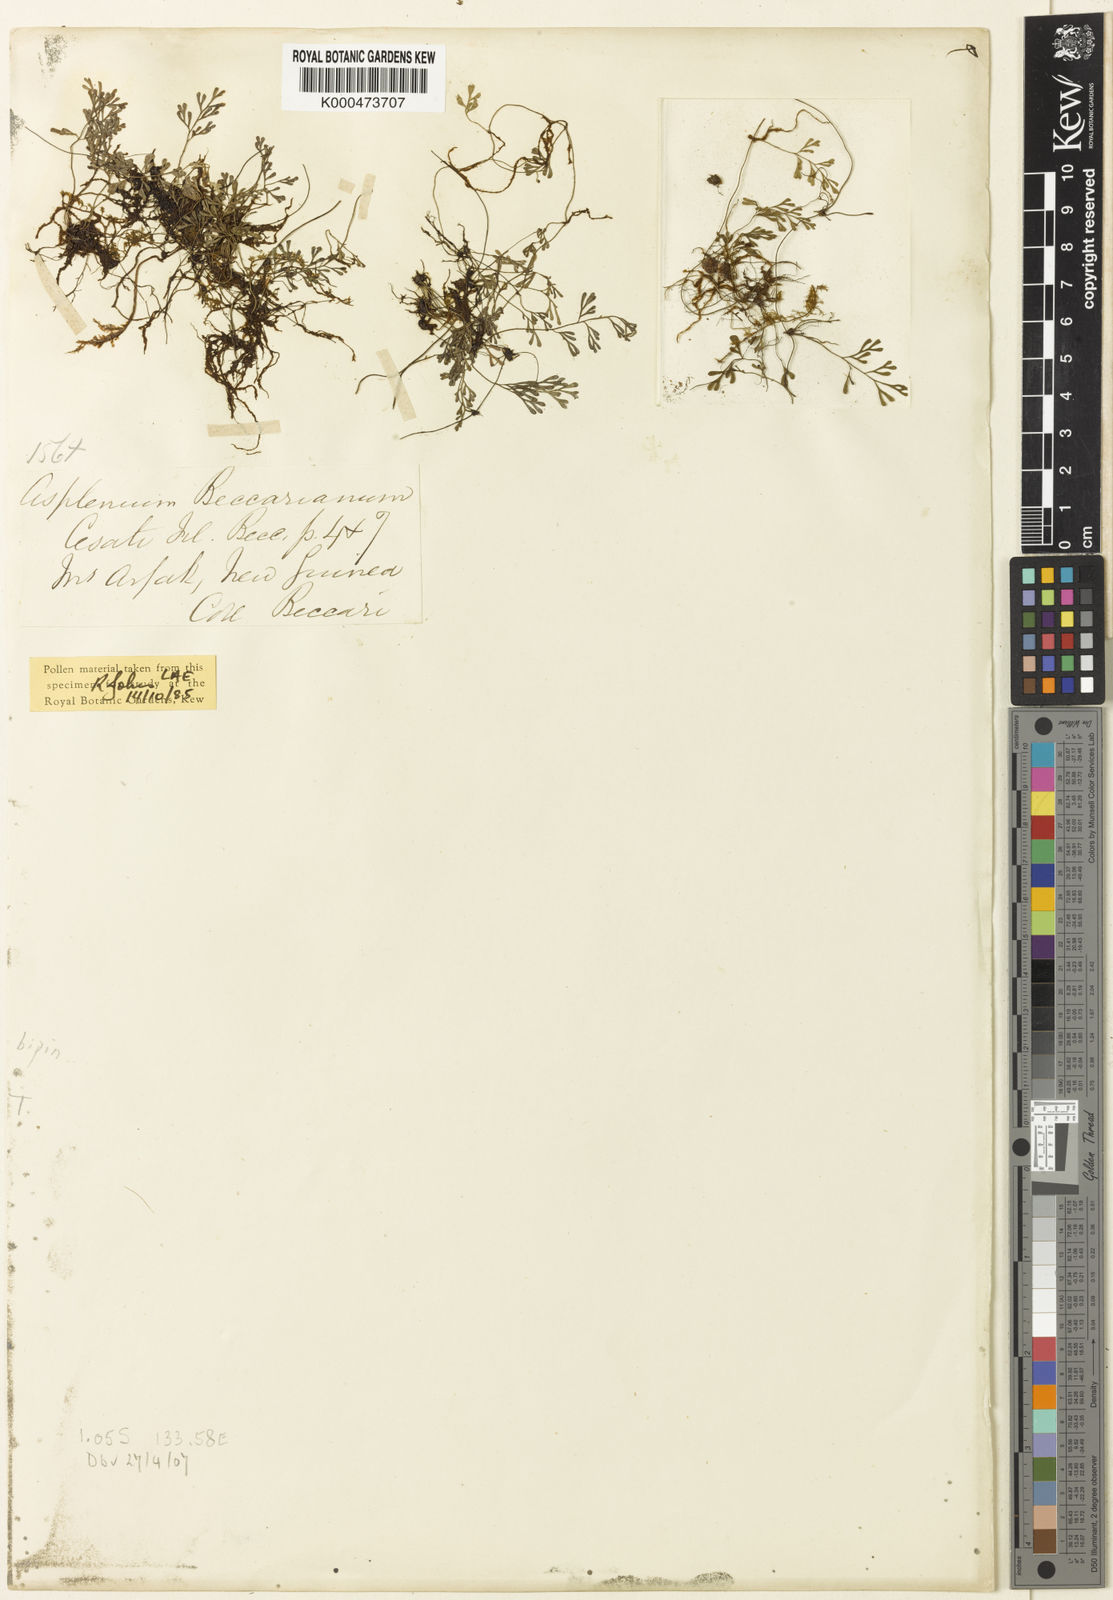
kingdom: Plantae
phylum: Tracheophyta
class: Polypodiopsida
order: Polypodiales
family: Aspleniaceae
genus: Asplenium
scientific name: Asplenium bipinnatifidum
